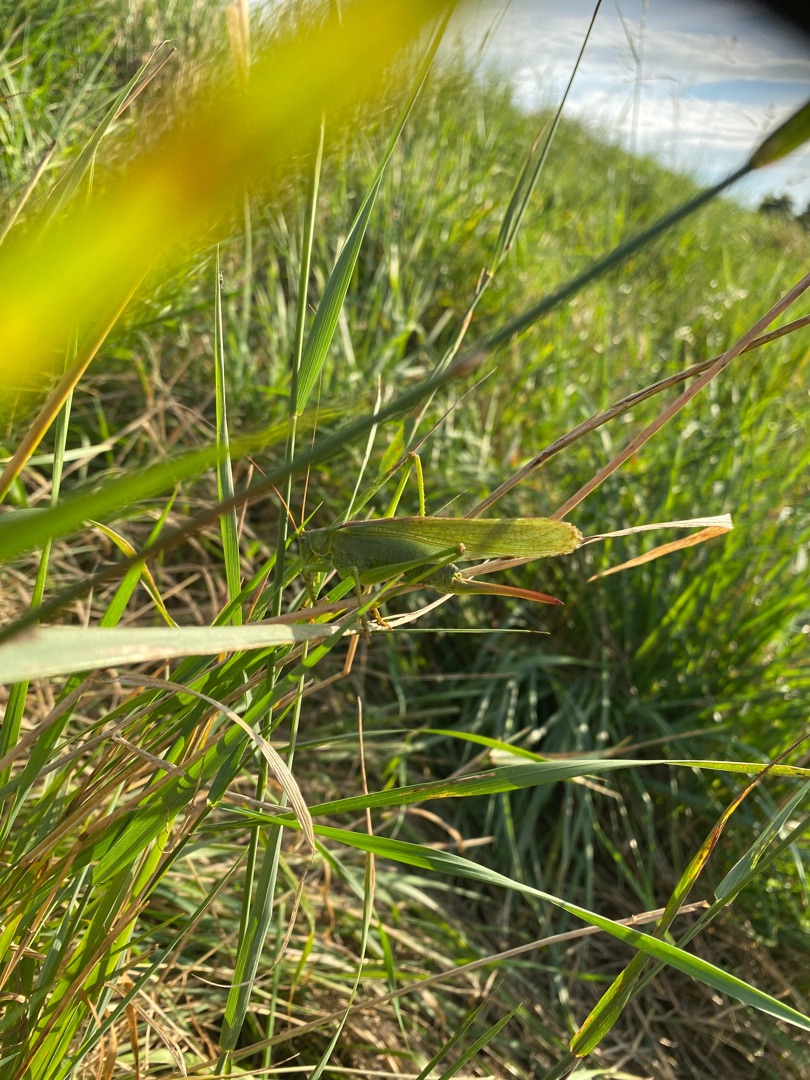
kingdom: Animalia
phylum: Arthropoda
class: Insecta
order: Orthoptera
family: Tettigoniidae
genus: Tettigonia
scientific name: Tettigonia viridissima
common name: Stor grøn løvgræshoppe
